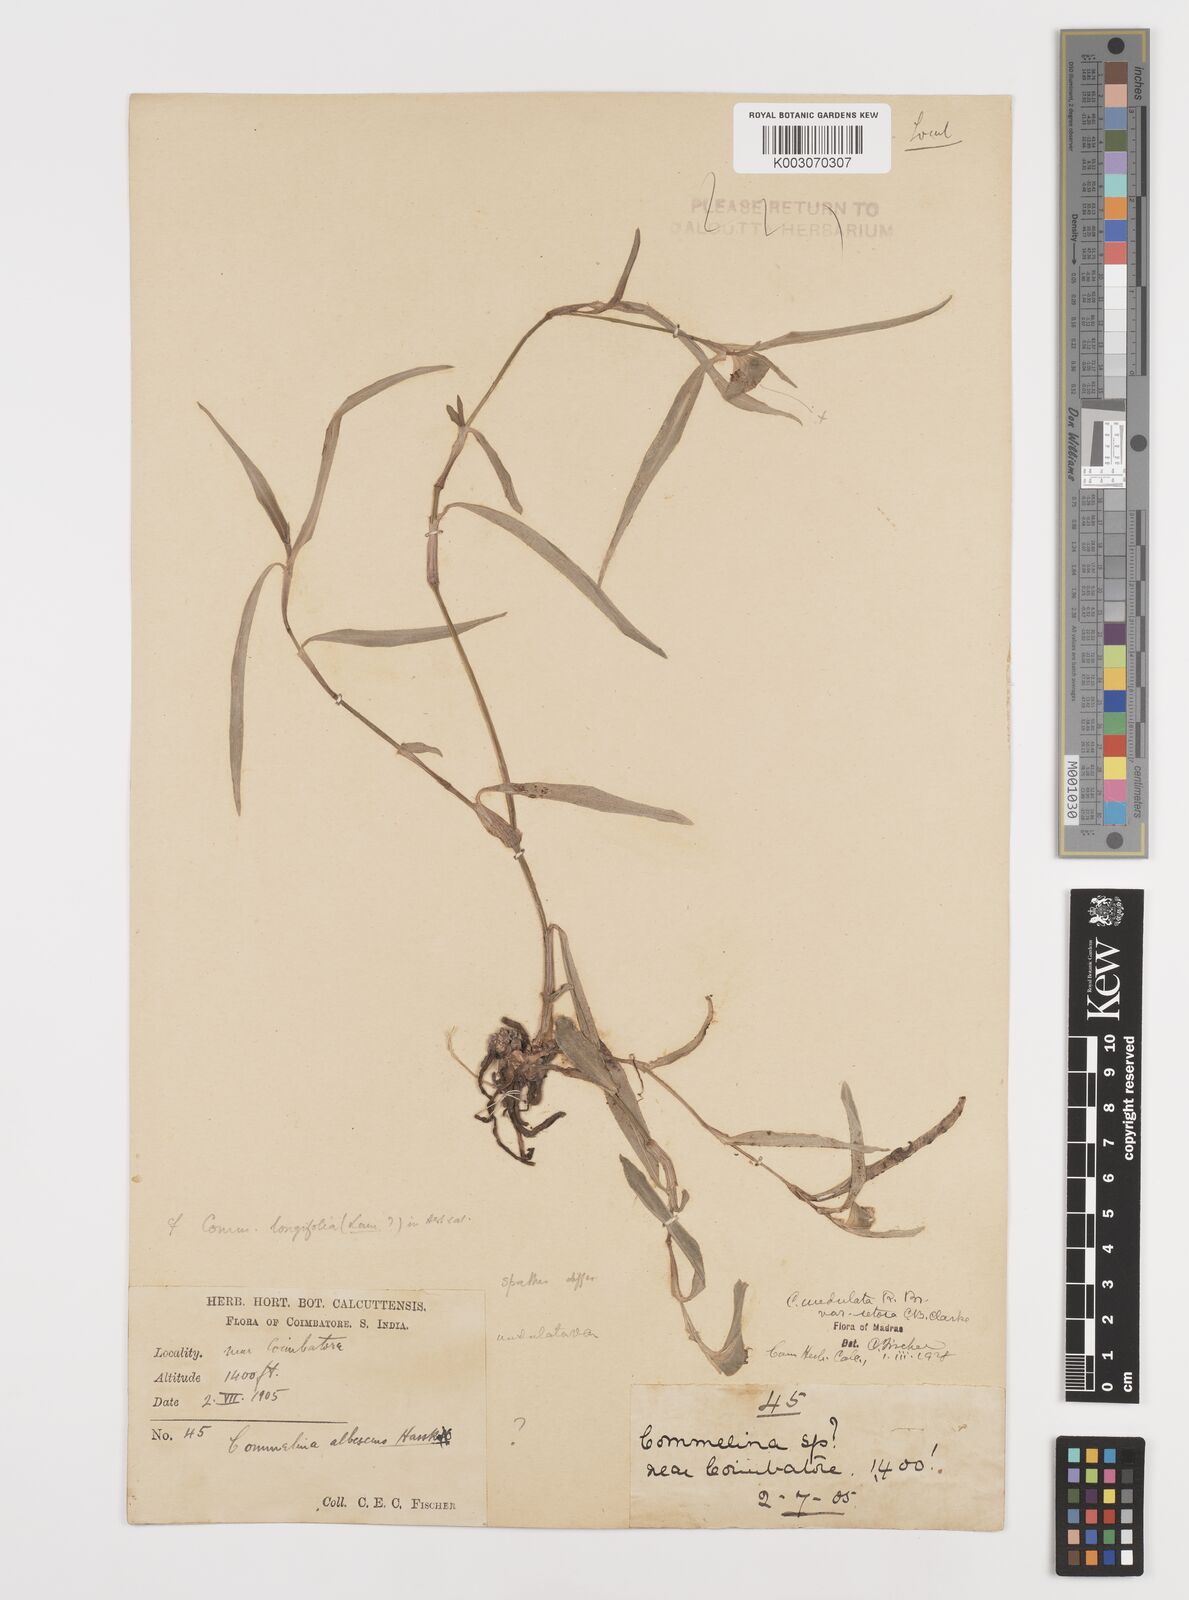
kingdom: Plantae
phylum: Tracheophyta
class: Liliopsida
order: Commelinales
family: Commelinaceae
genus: Commelina
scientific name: Commelina chamissonis
